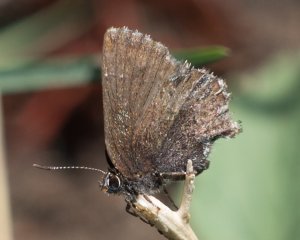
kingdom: Animalia
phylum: Arthropoda
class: Insecta
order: Lepidoptera
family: Lycaenidae
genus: Incisalia
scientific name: Incisalia irioides
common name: Brown Elfin
